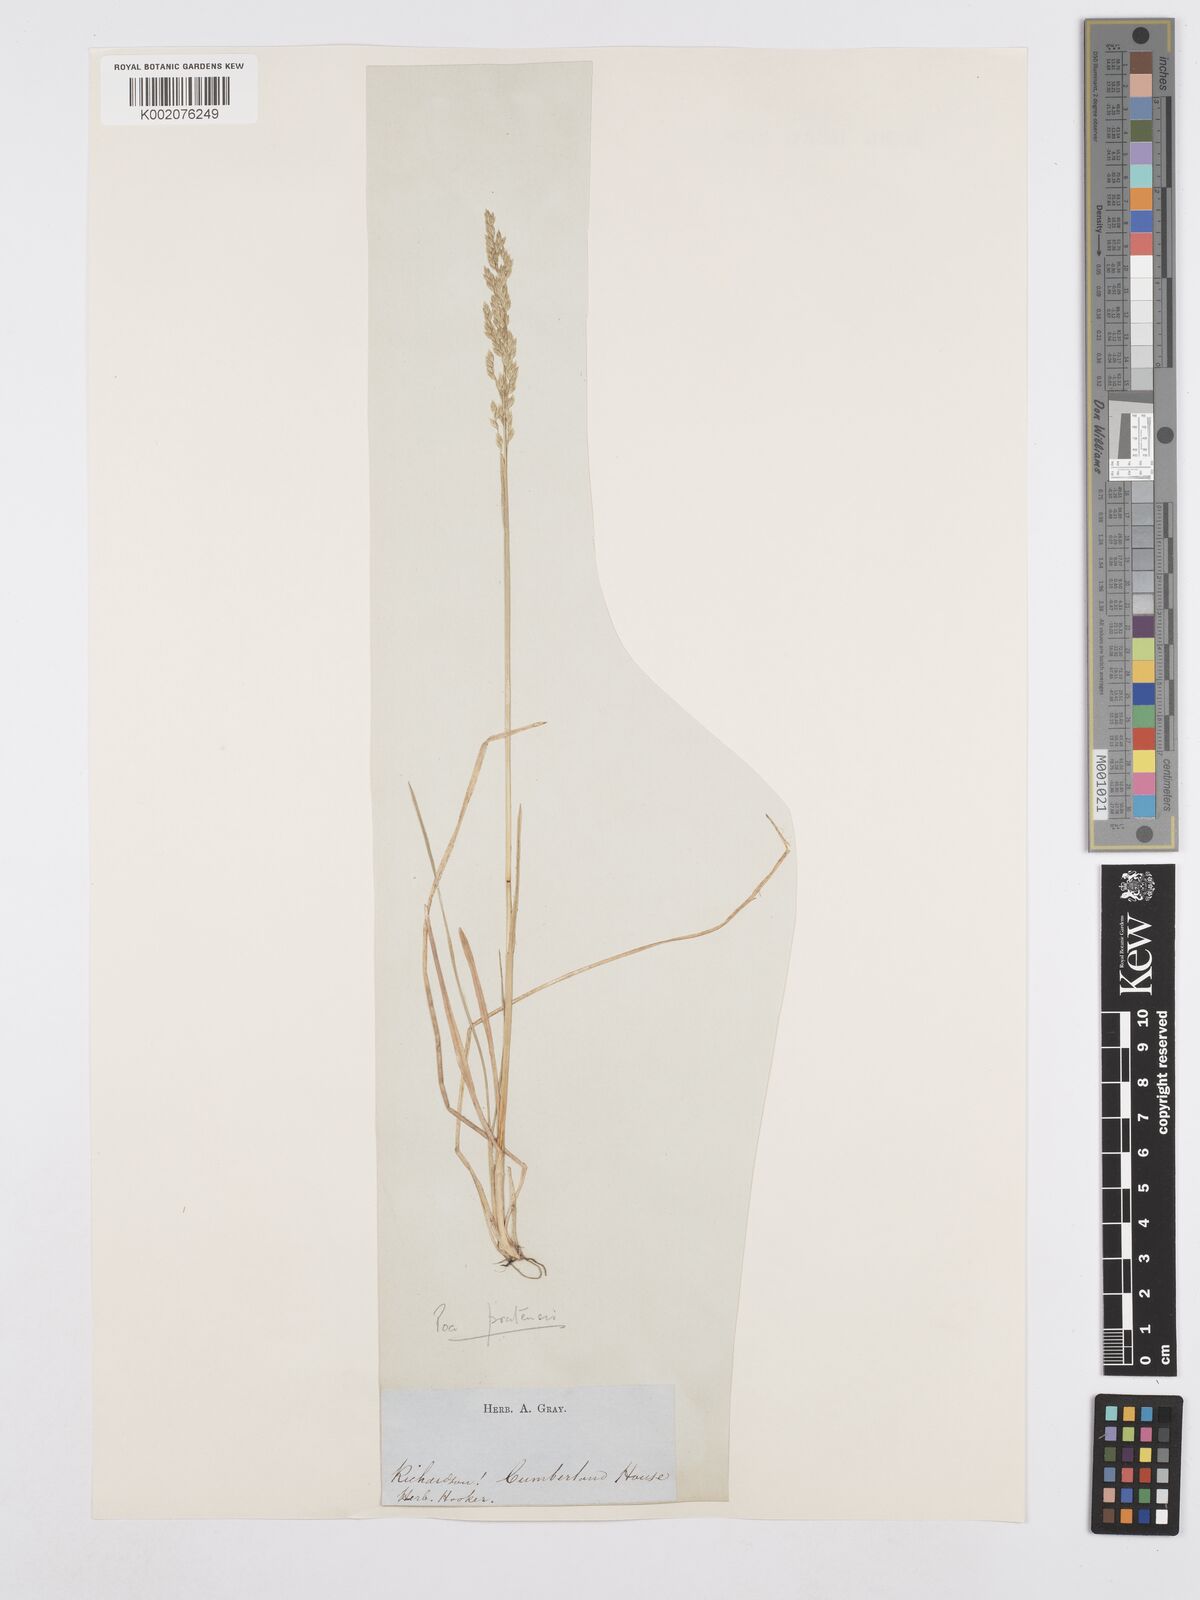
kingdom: Plantae
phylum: Tracheophyta
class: Liliopsida
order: Poales
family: Poaceae
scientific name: Poaceae
